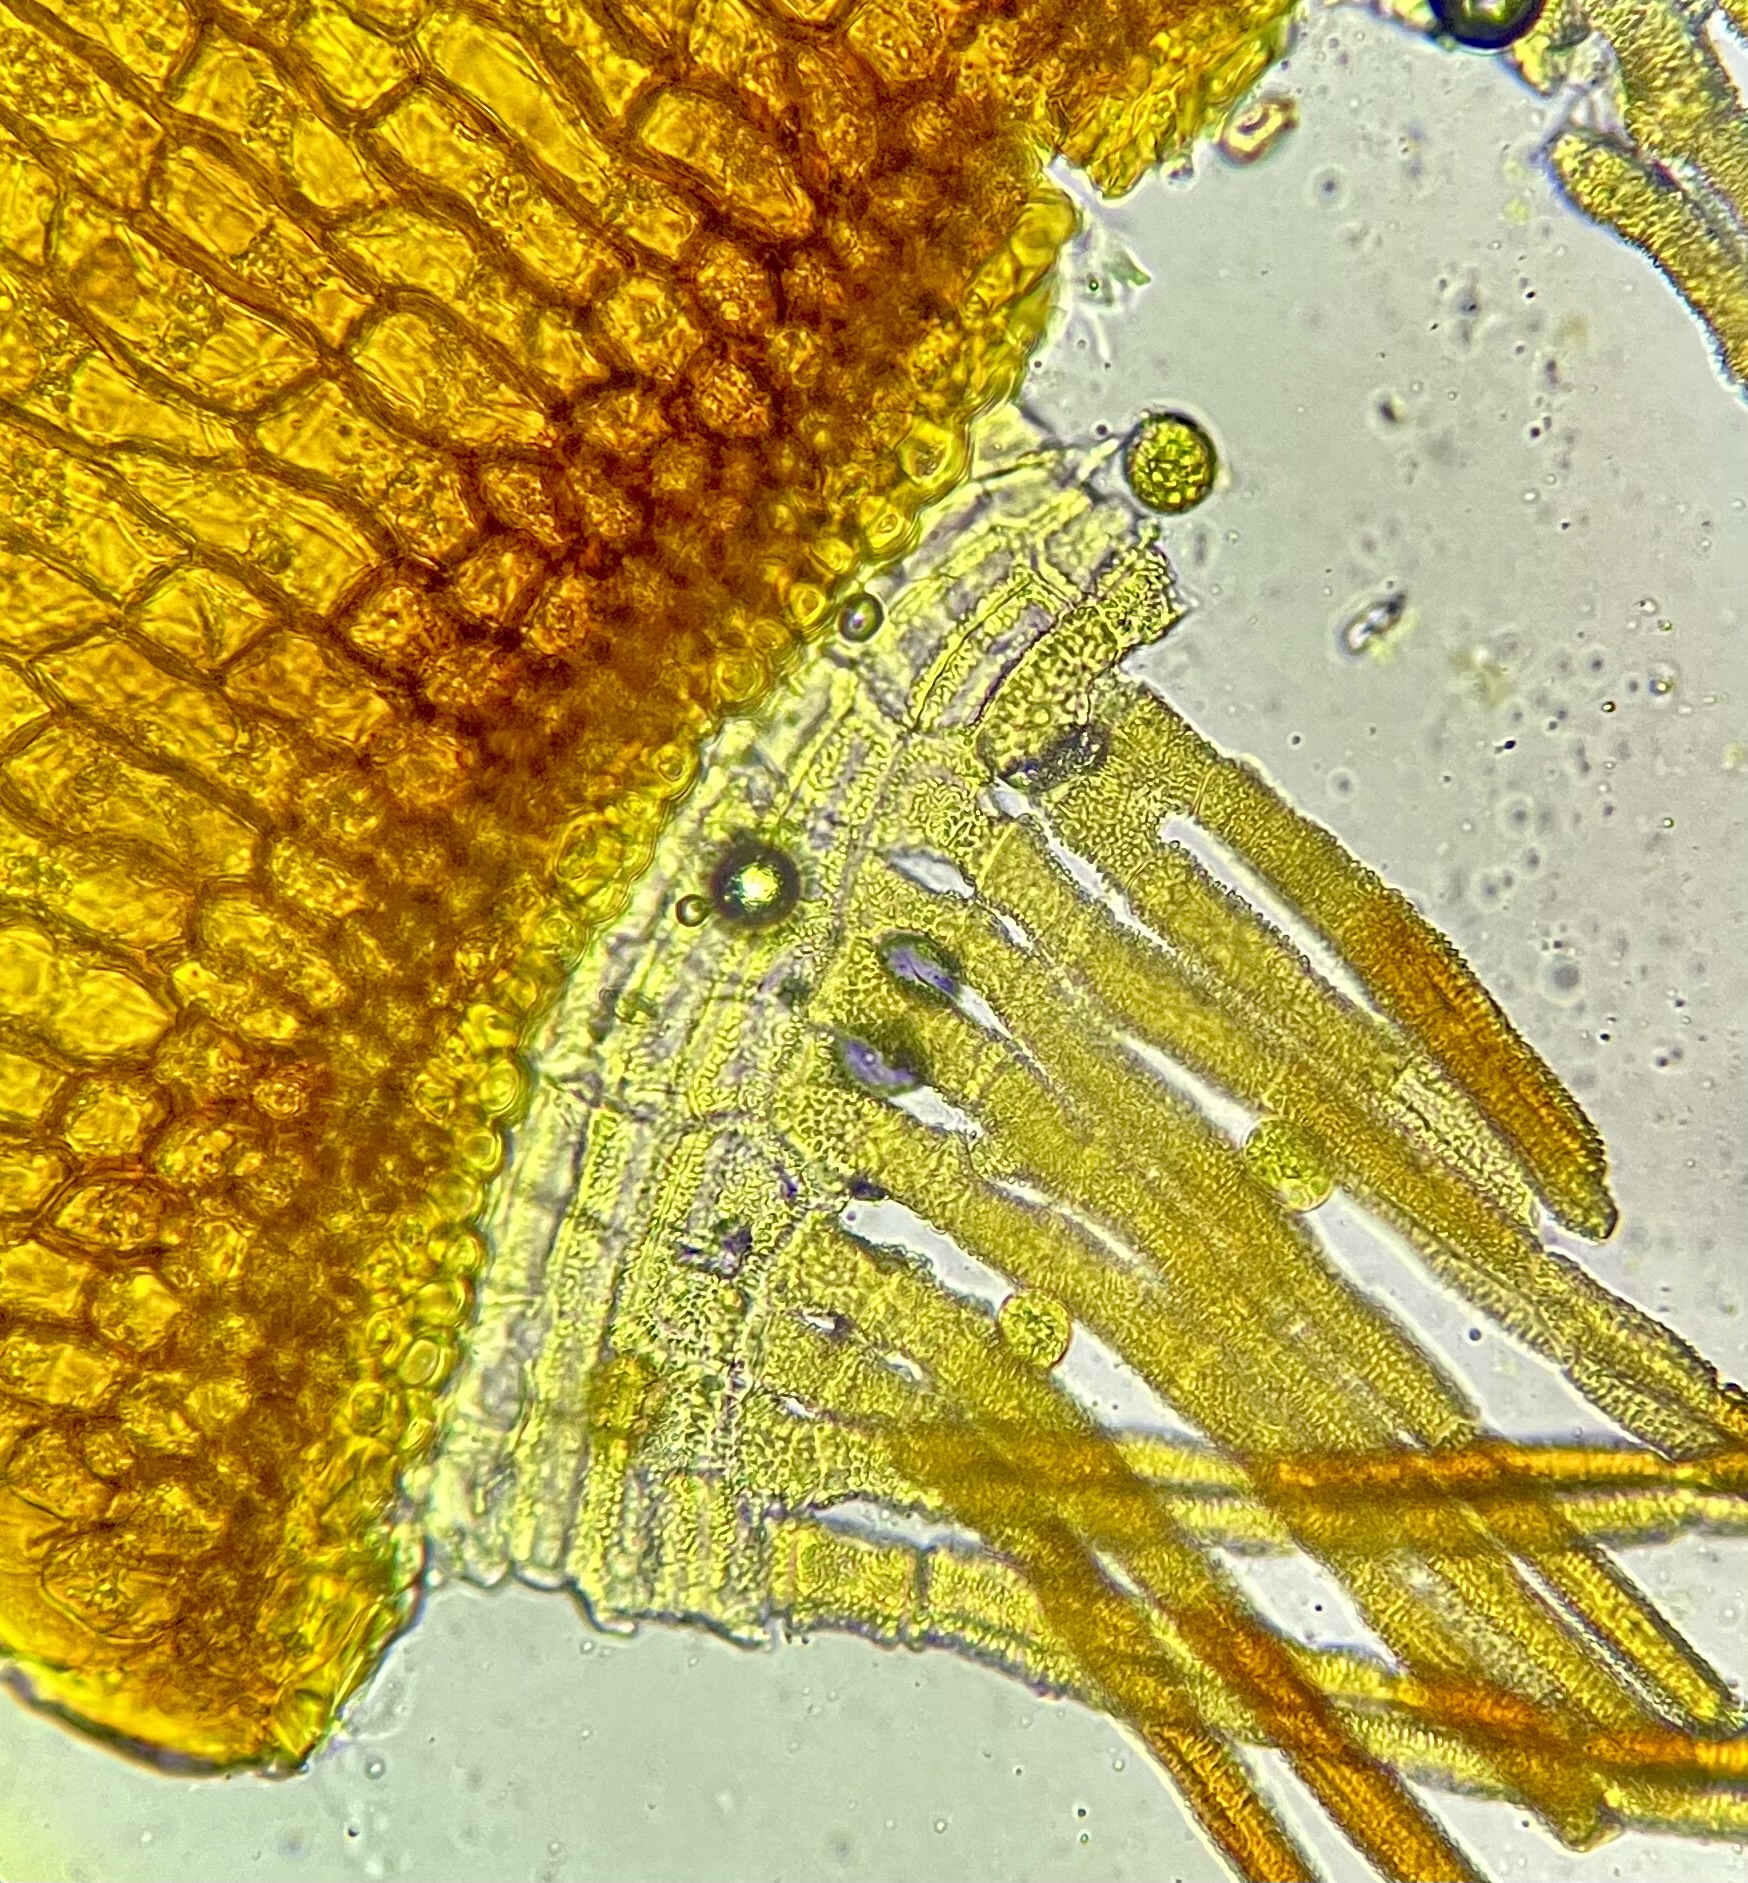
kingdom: Plantae
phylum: Bryophyta
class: Bryopsida
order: Pottiales
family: Pottiaceae
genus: Aloina
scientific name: Aloina ambigua
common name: Krog-tøffelmos
